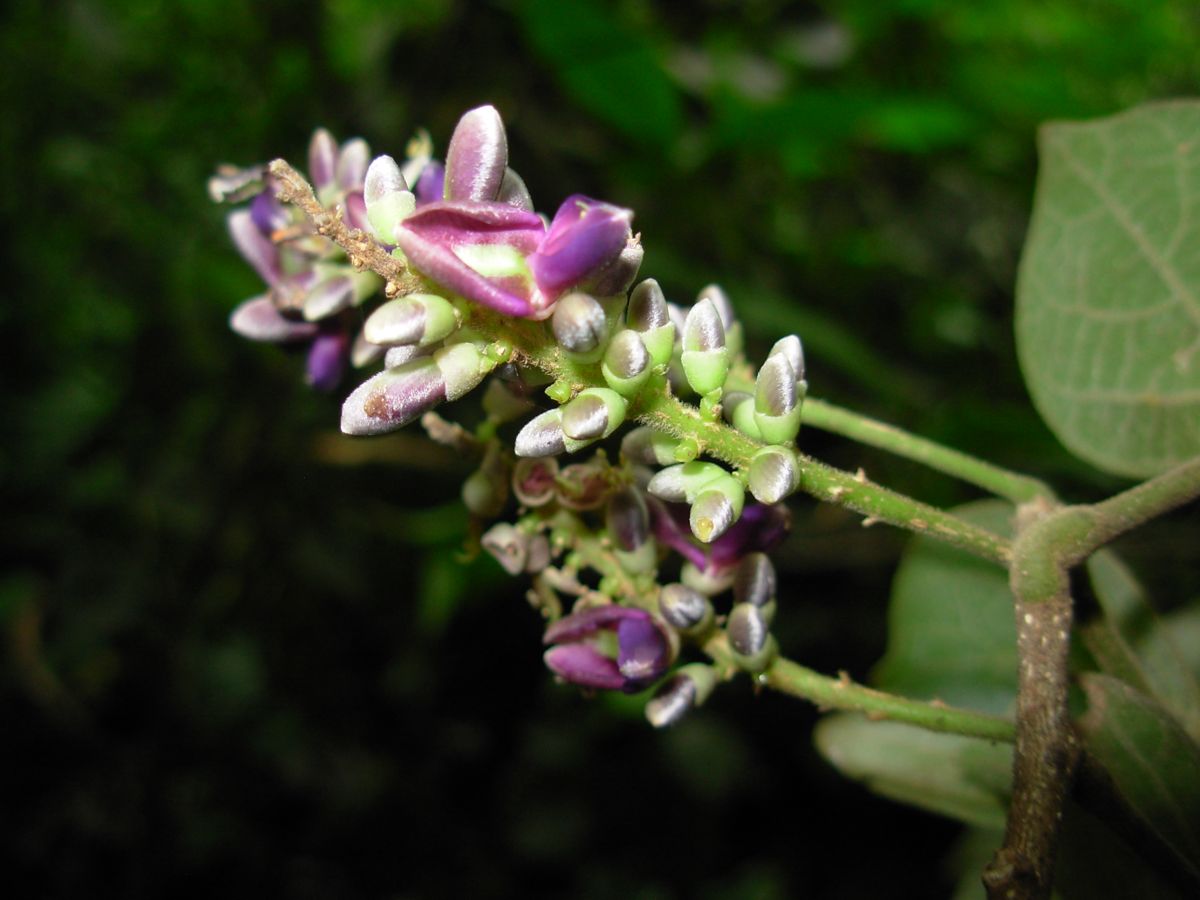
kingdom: Plantae
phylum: Tracheophyta
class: Magnoliopsida
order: Fabales
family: Fabaceae
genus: Lonchocarpus
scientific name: Lonchocarpus phaseolifolius
